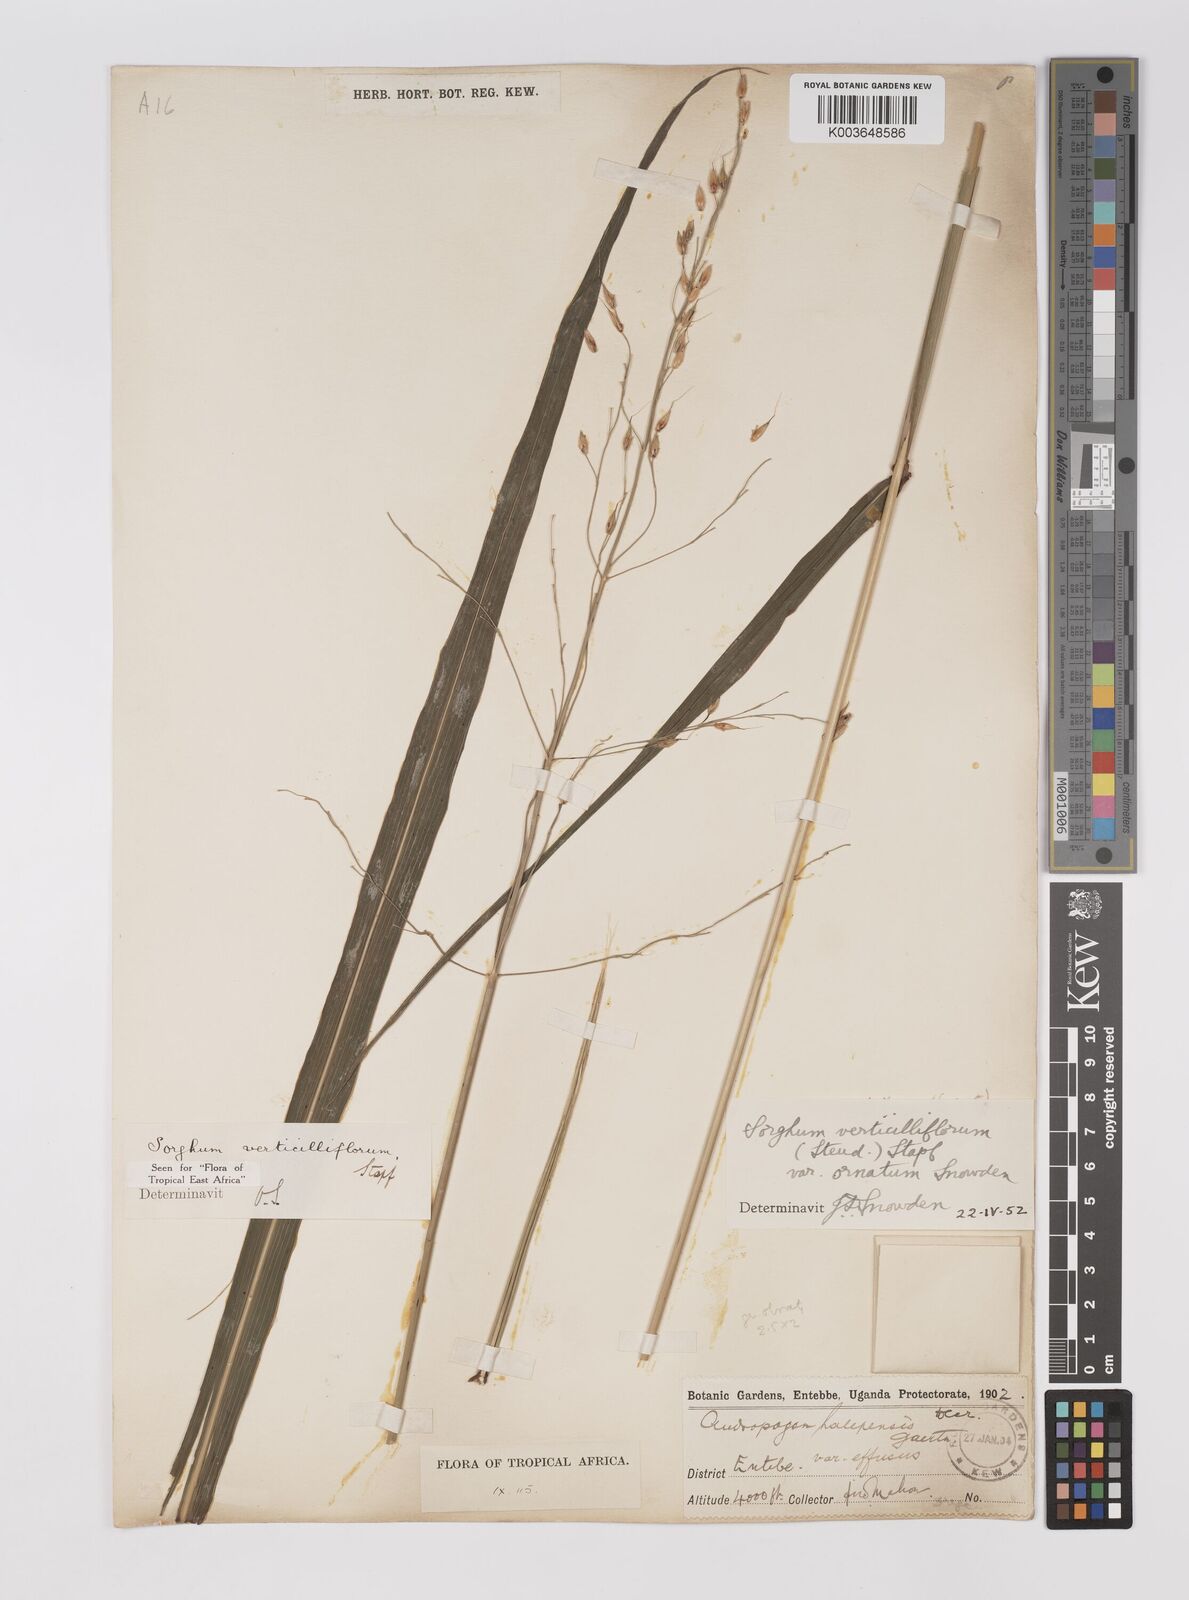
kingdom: Plantae
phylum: Tracheophyta
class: Liliopsida
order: Poales
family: Poaceae
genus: Sorghum
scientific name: Sorghum arundinaceum
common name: Sorghum
